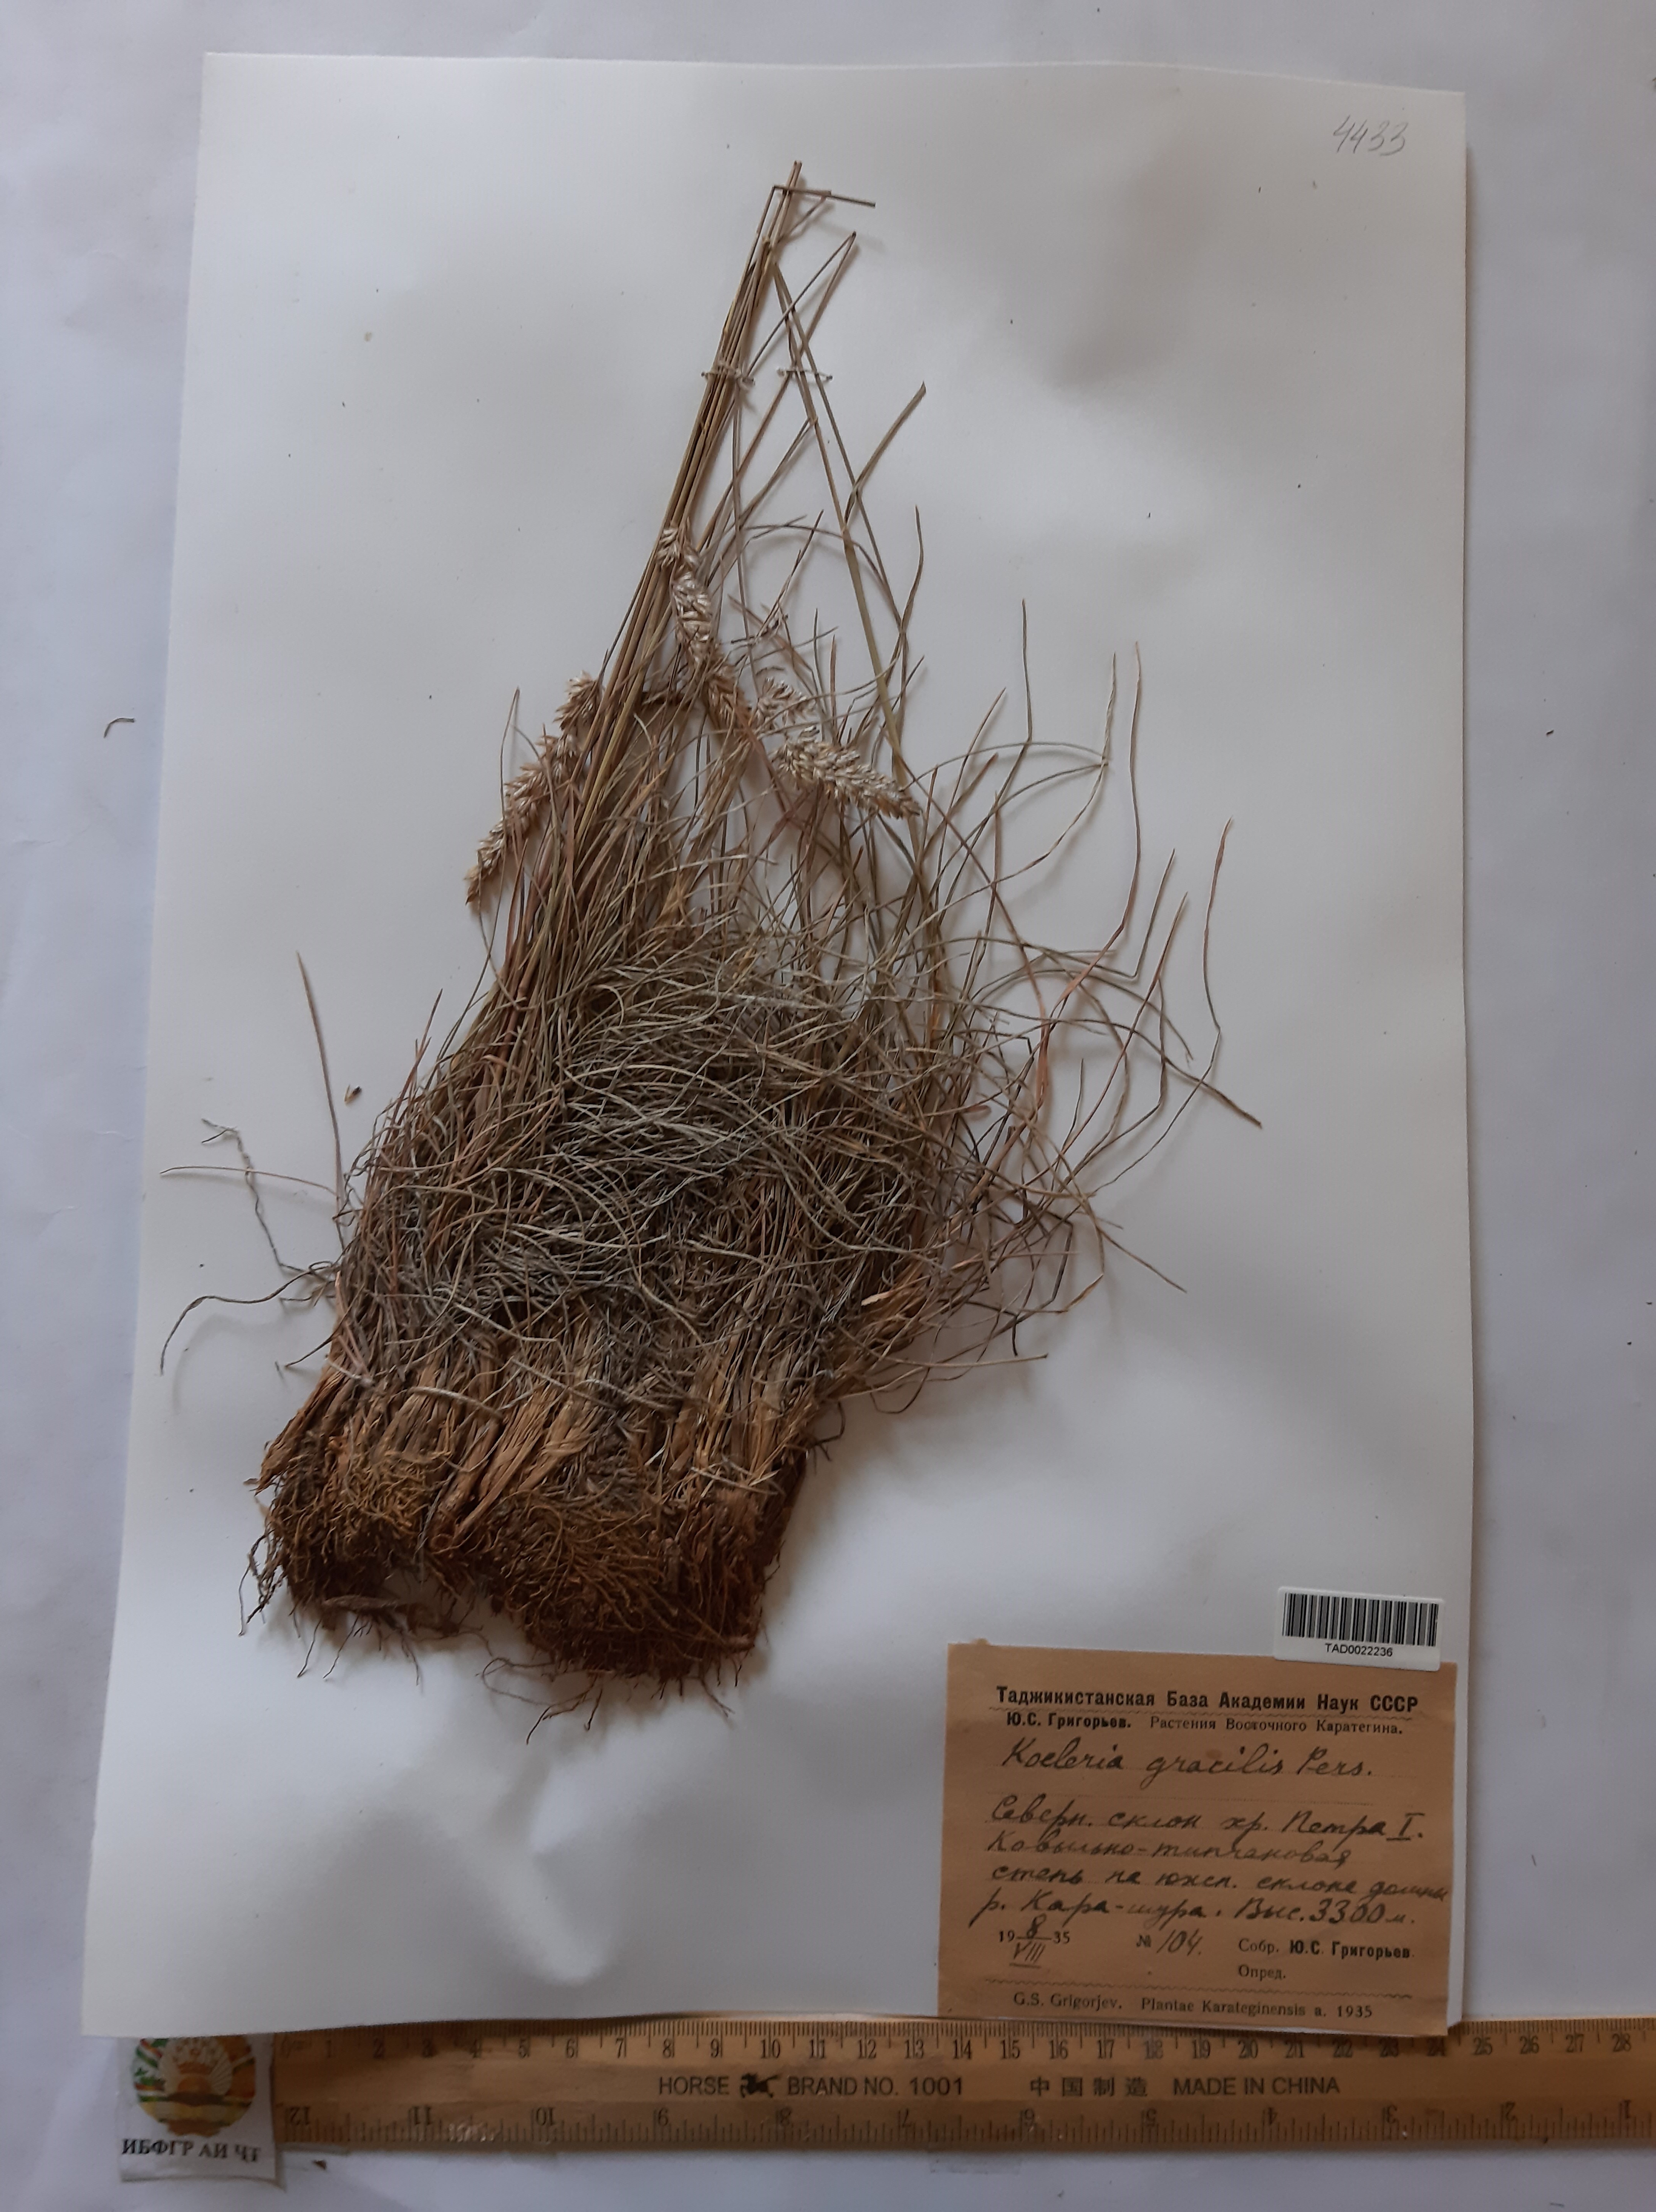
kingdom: Plantae
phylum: Tracheophyta
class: Liliopsida
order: Poales
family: Poaceae
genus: Koeleria
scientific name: Koeleria macrantha
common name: Crested hair-grass
